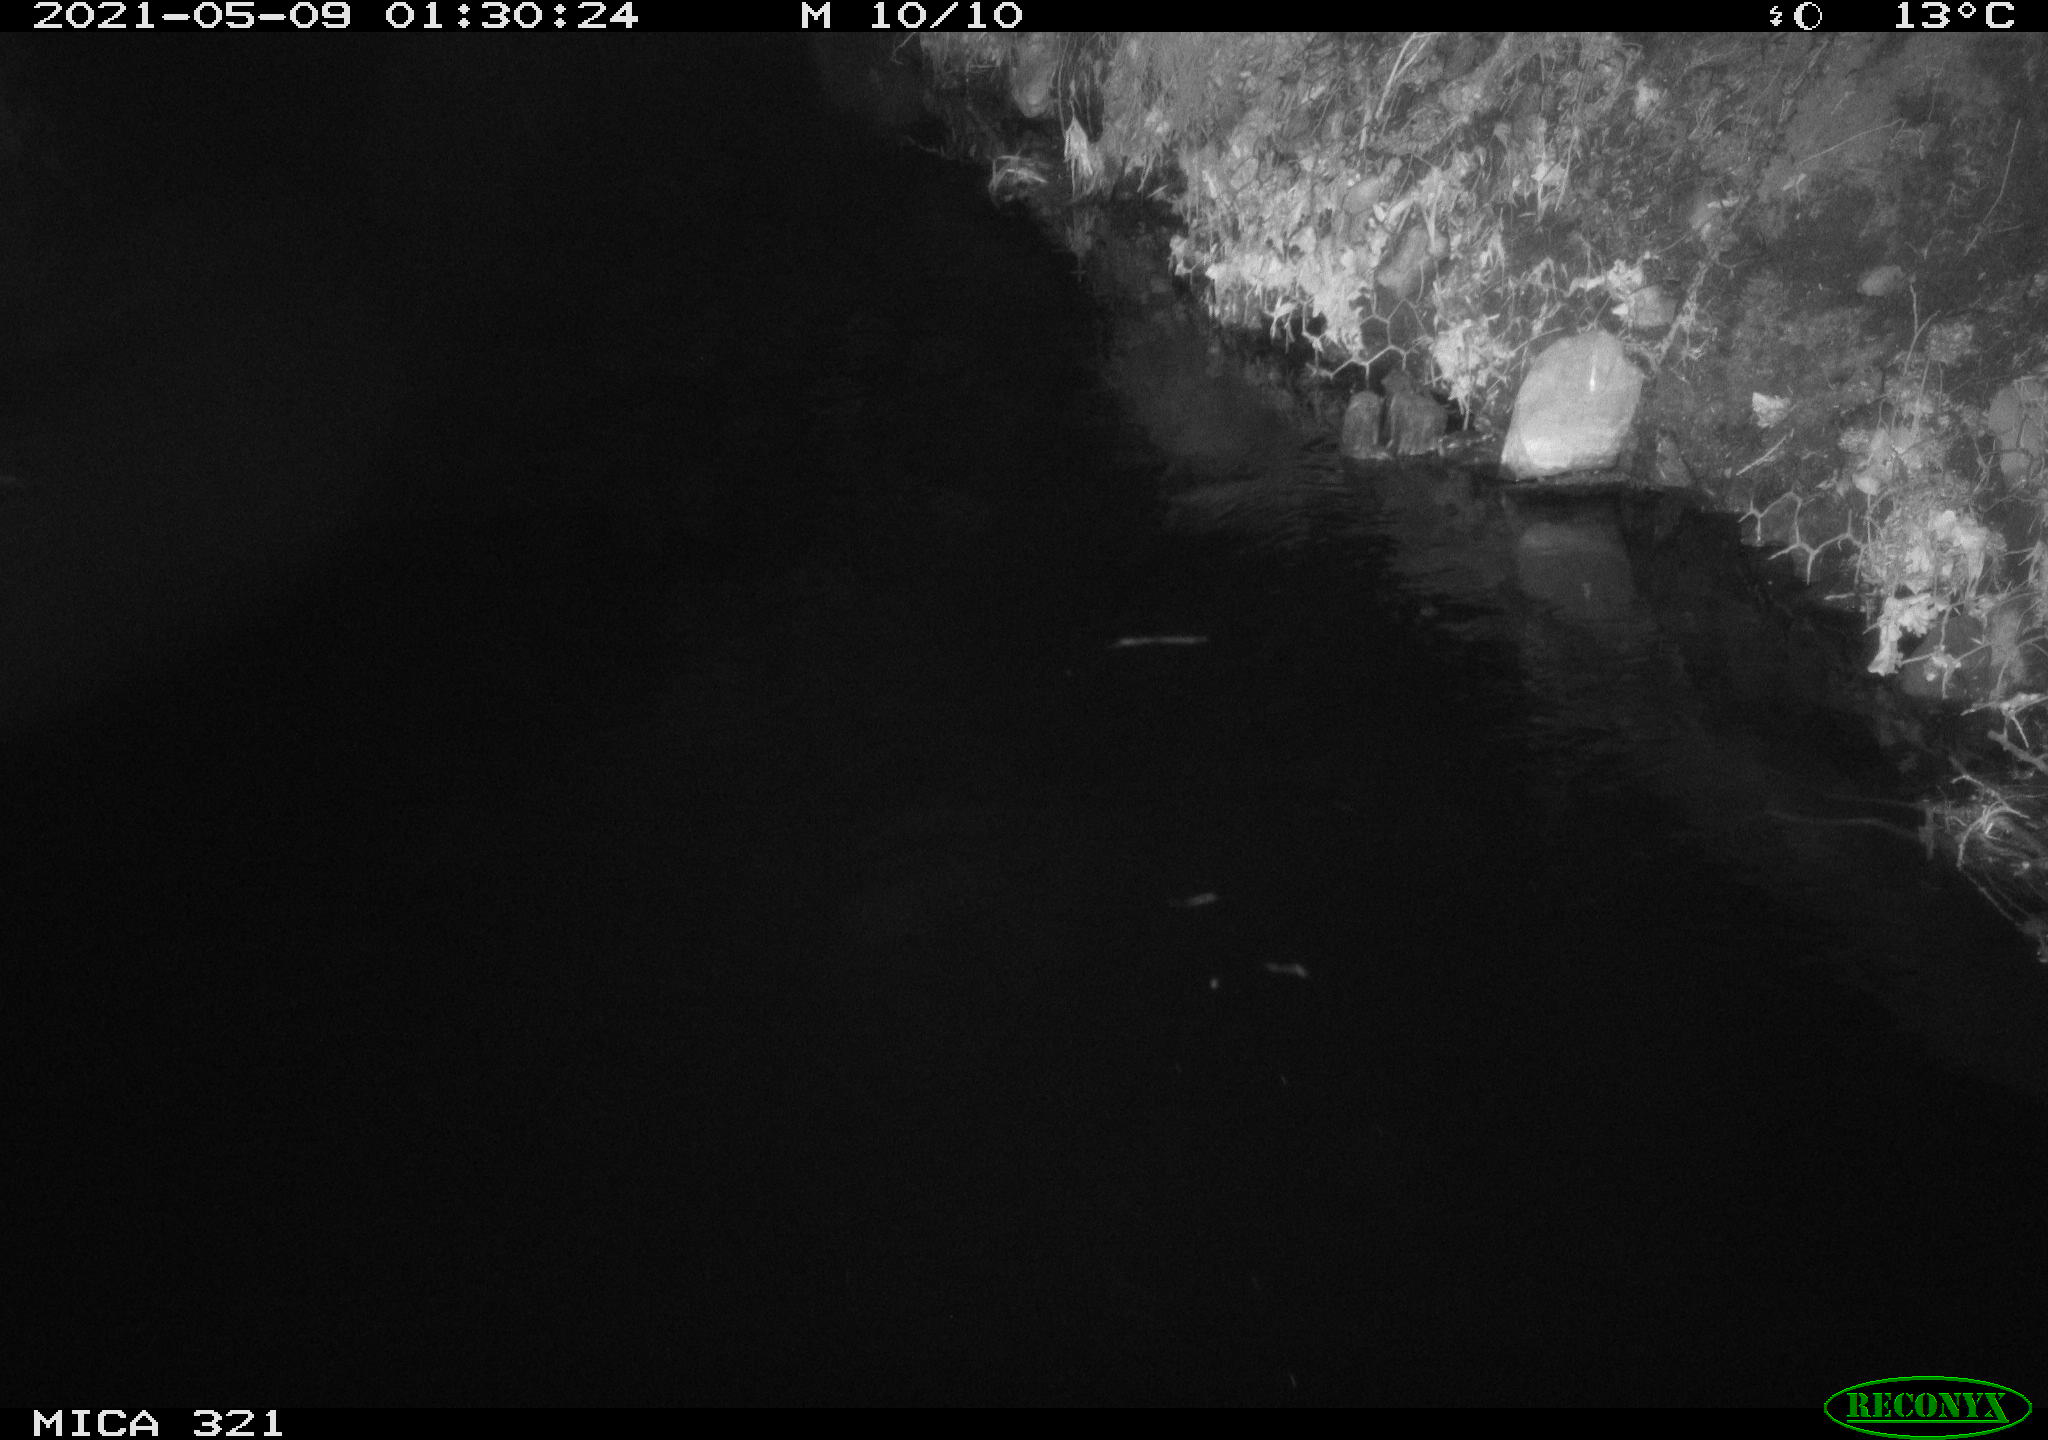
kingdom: Animalia
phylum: Chordata
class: Mammalia
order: Rodentia
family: Muridae
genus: Rattus
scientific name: Rattus norvegicus
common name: Brown rat
